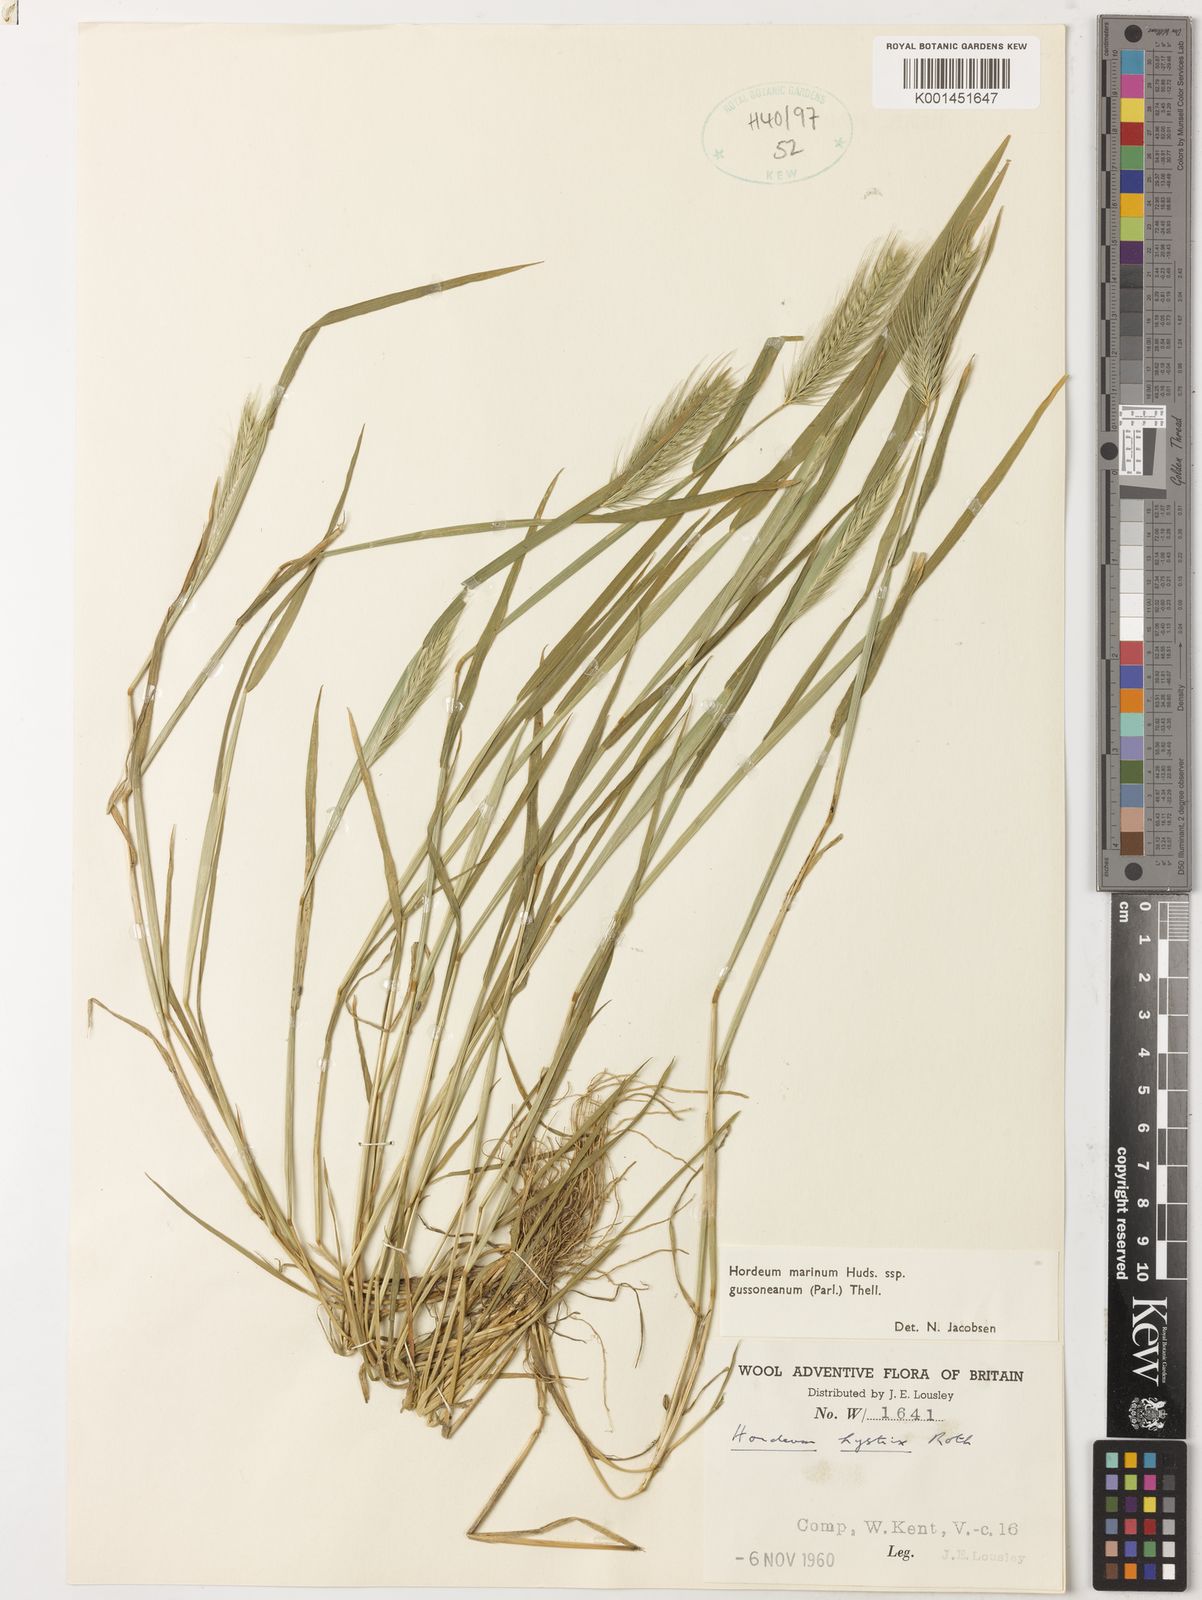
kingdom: Plantae
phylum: Tracheophyta
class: Liliopsida
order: Poales
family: Poaceae
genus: Hordeum
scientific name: Hordeum marinum
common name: Sea barley
